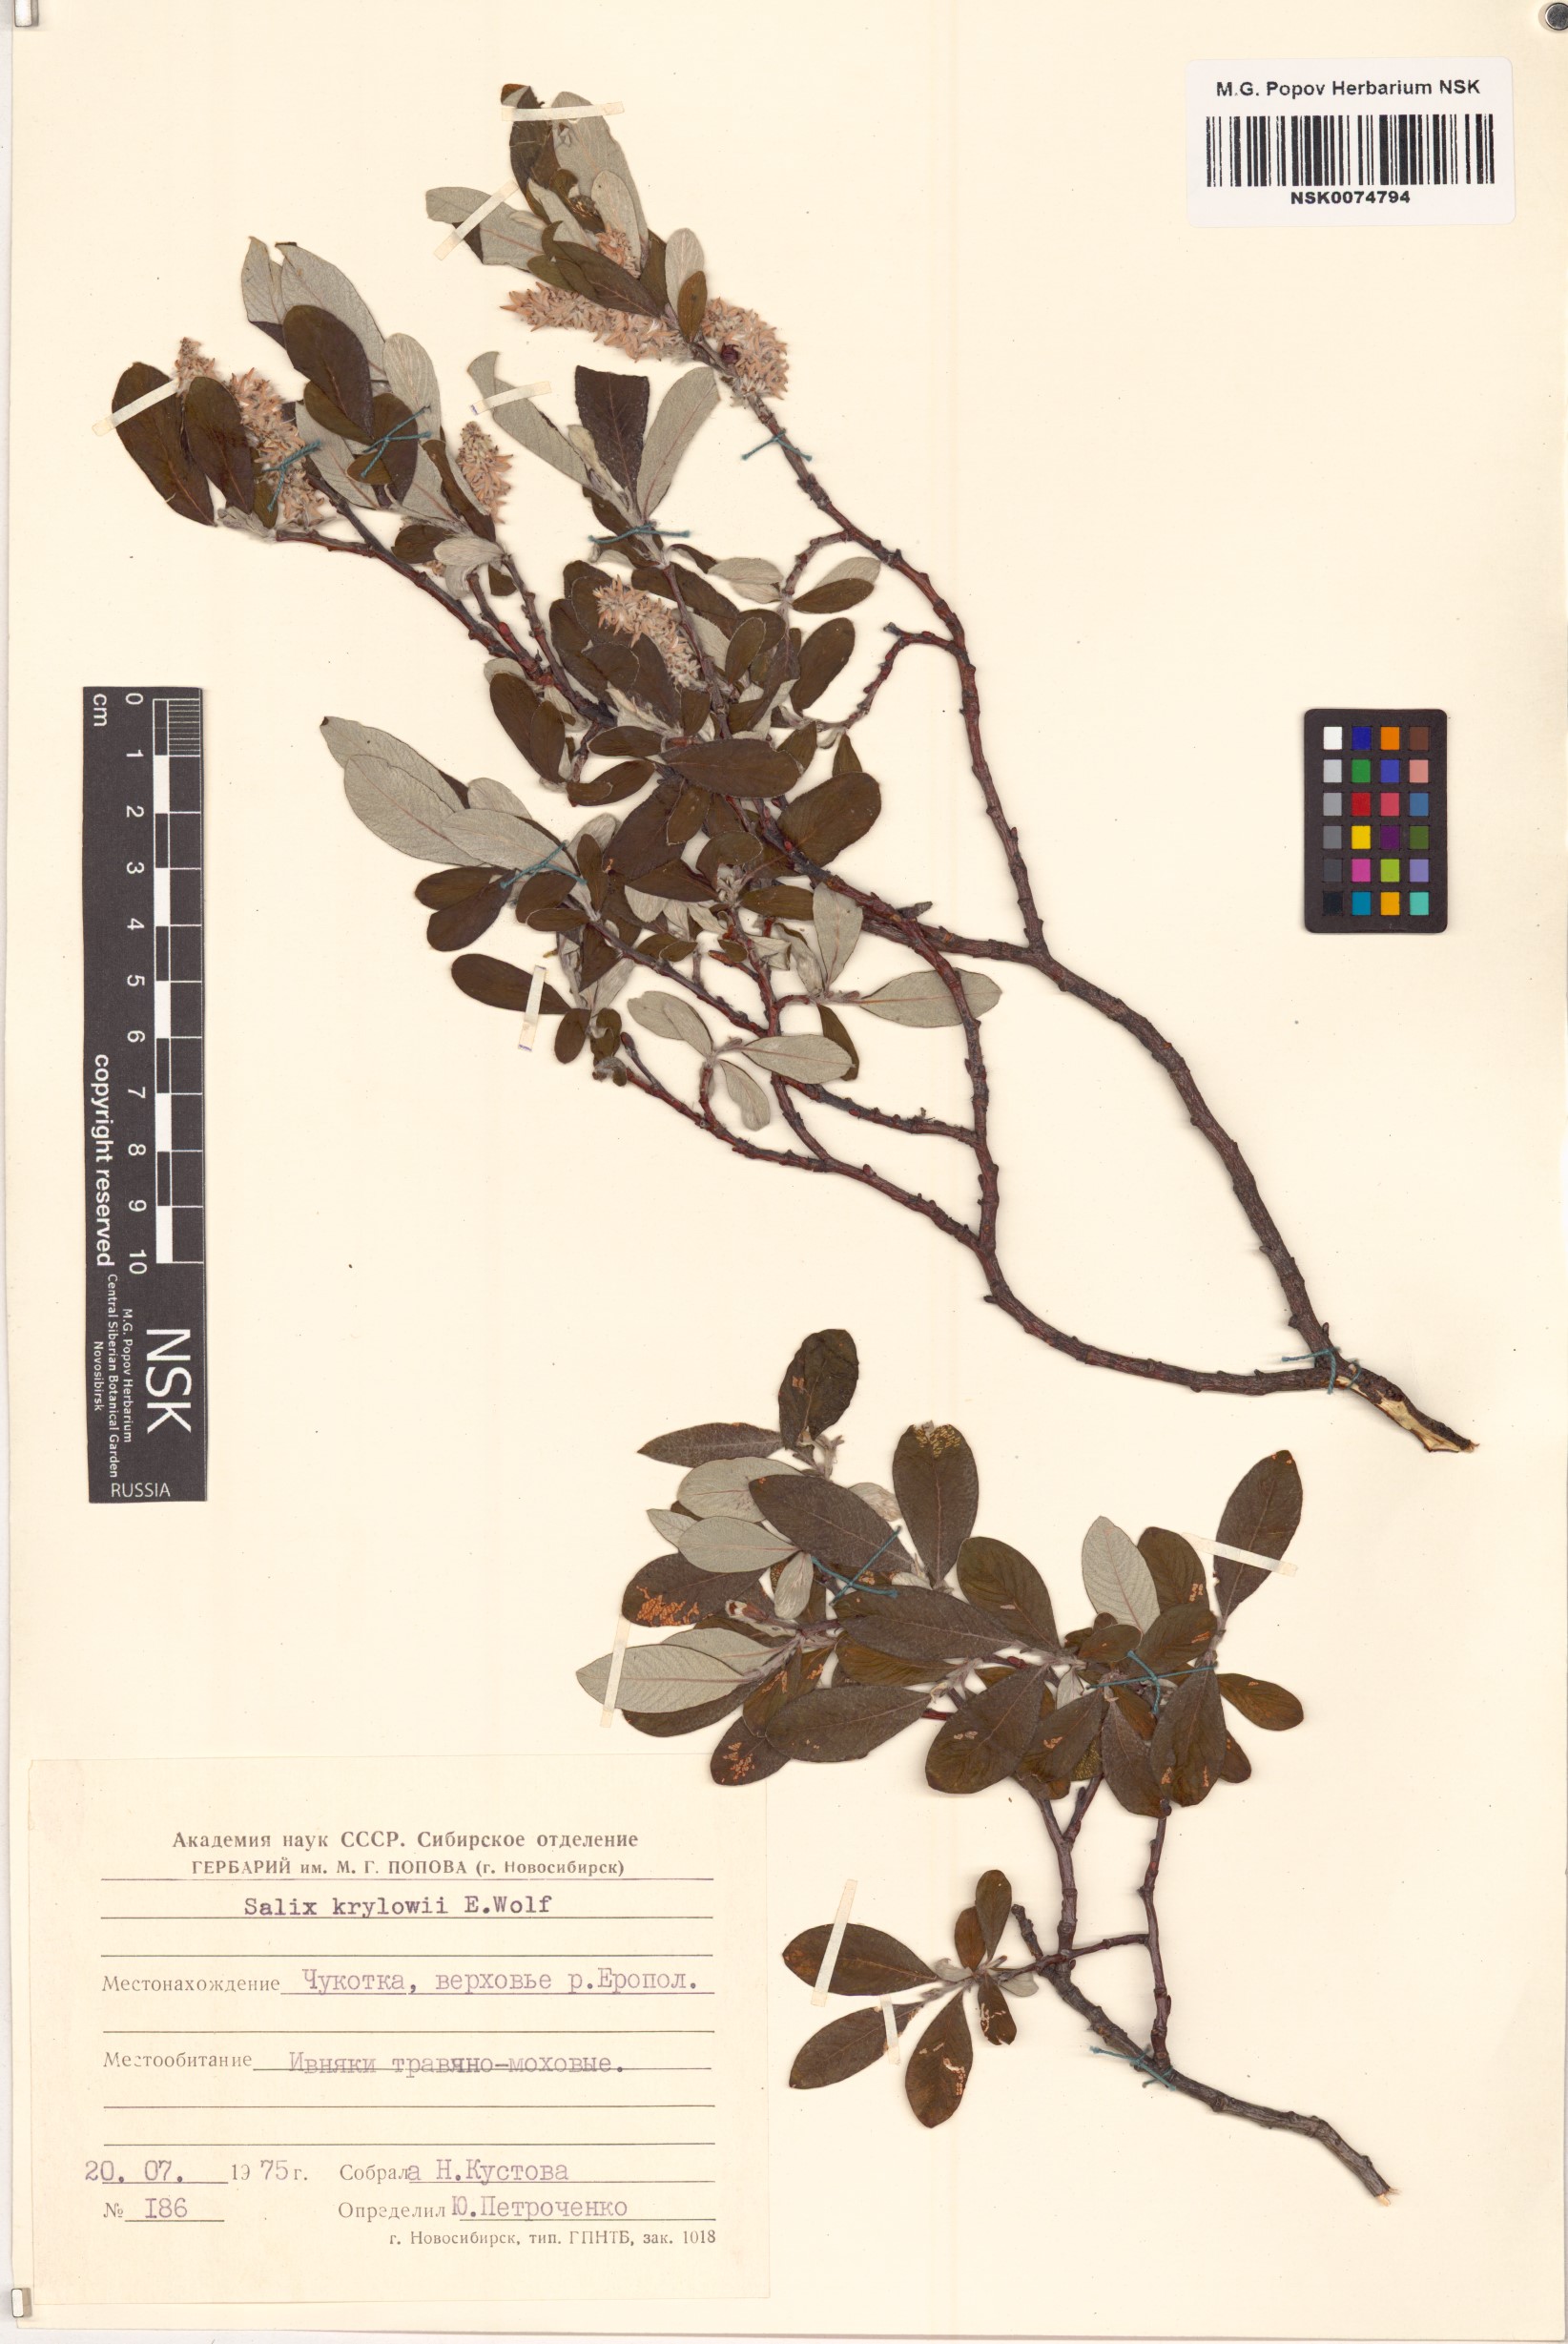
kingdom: Plantae
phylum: Tracheophyta
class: Magnoliopsida
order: Malpighiales
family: Salicaceae
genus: Salix
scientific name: Salix krylovii
